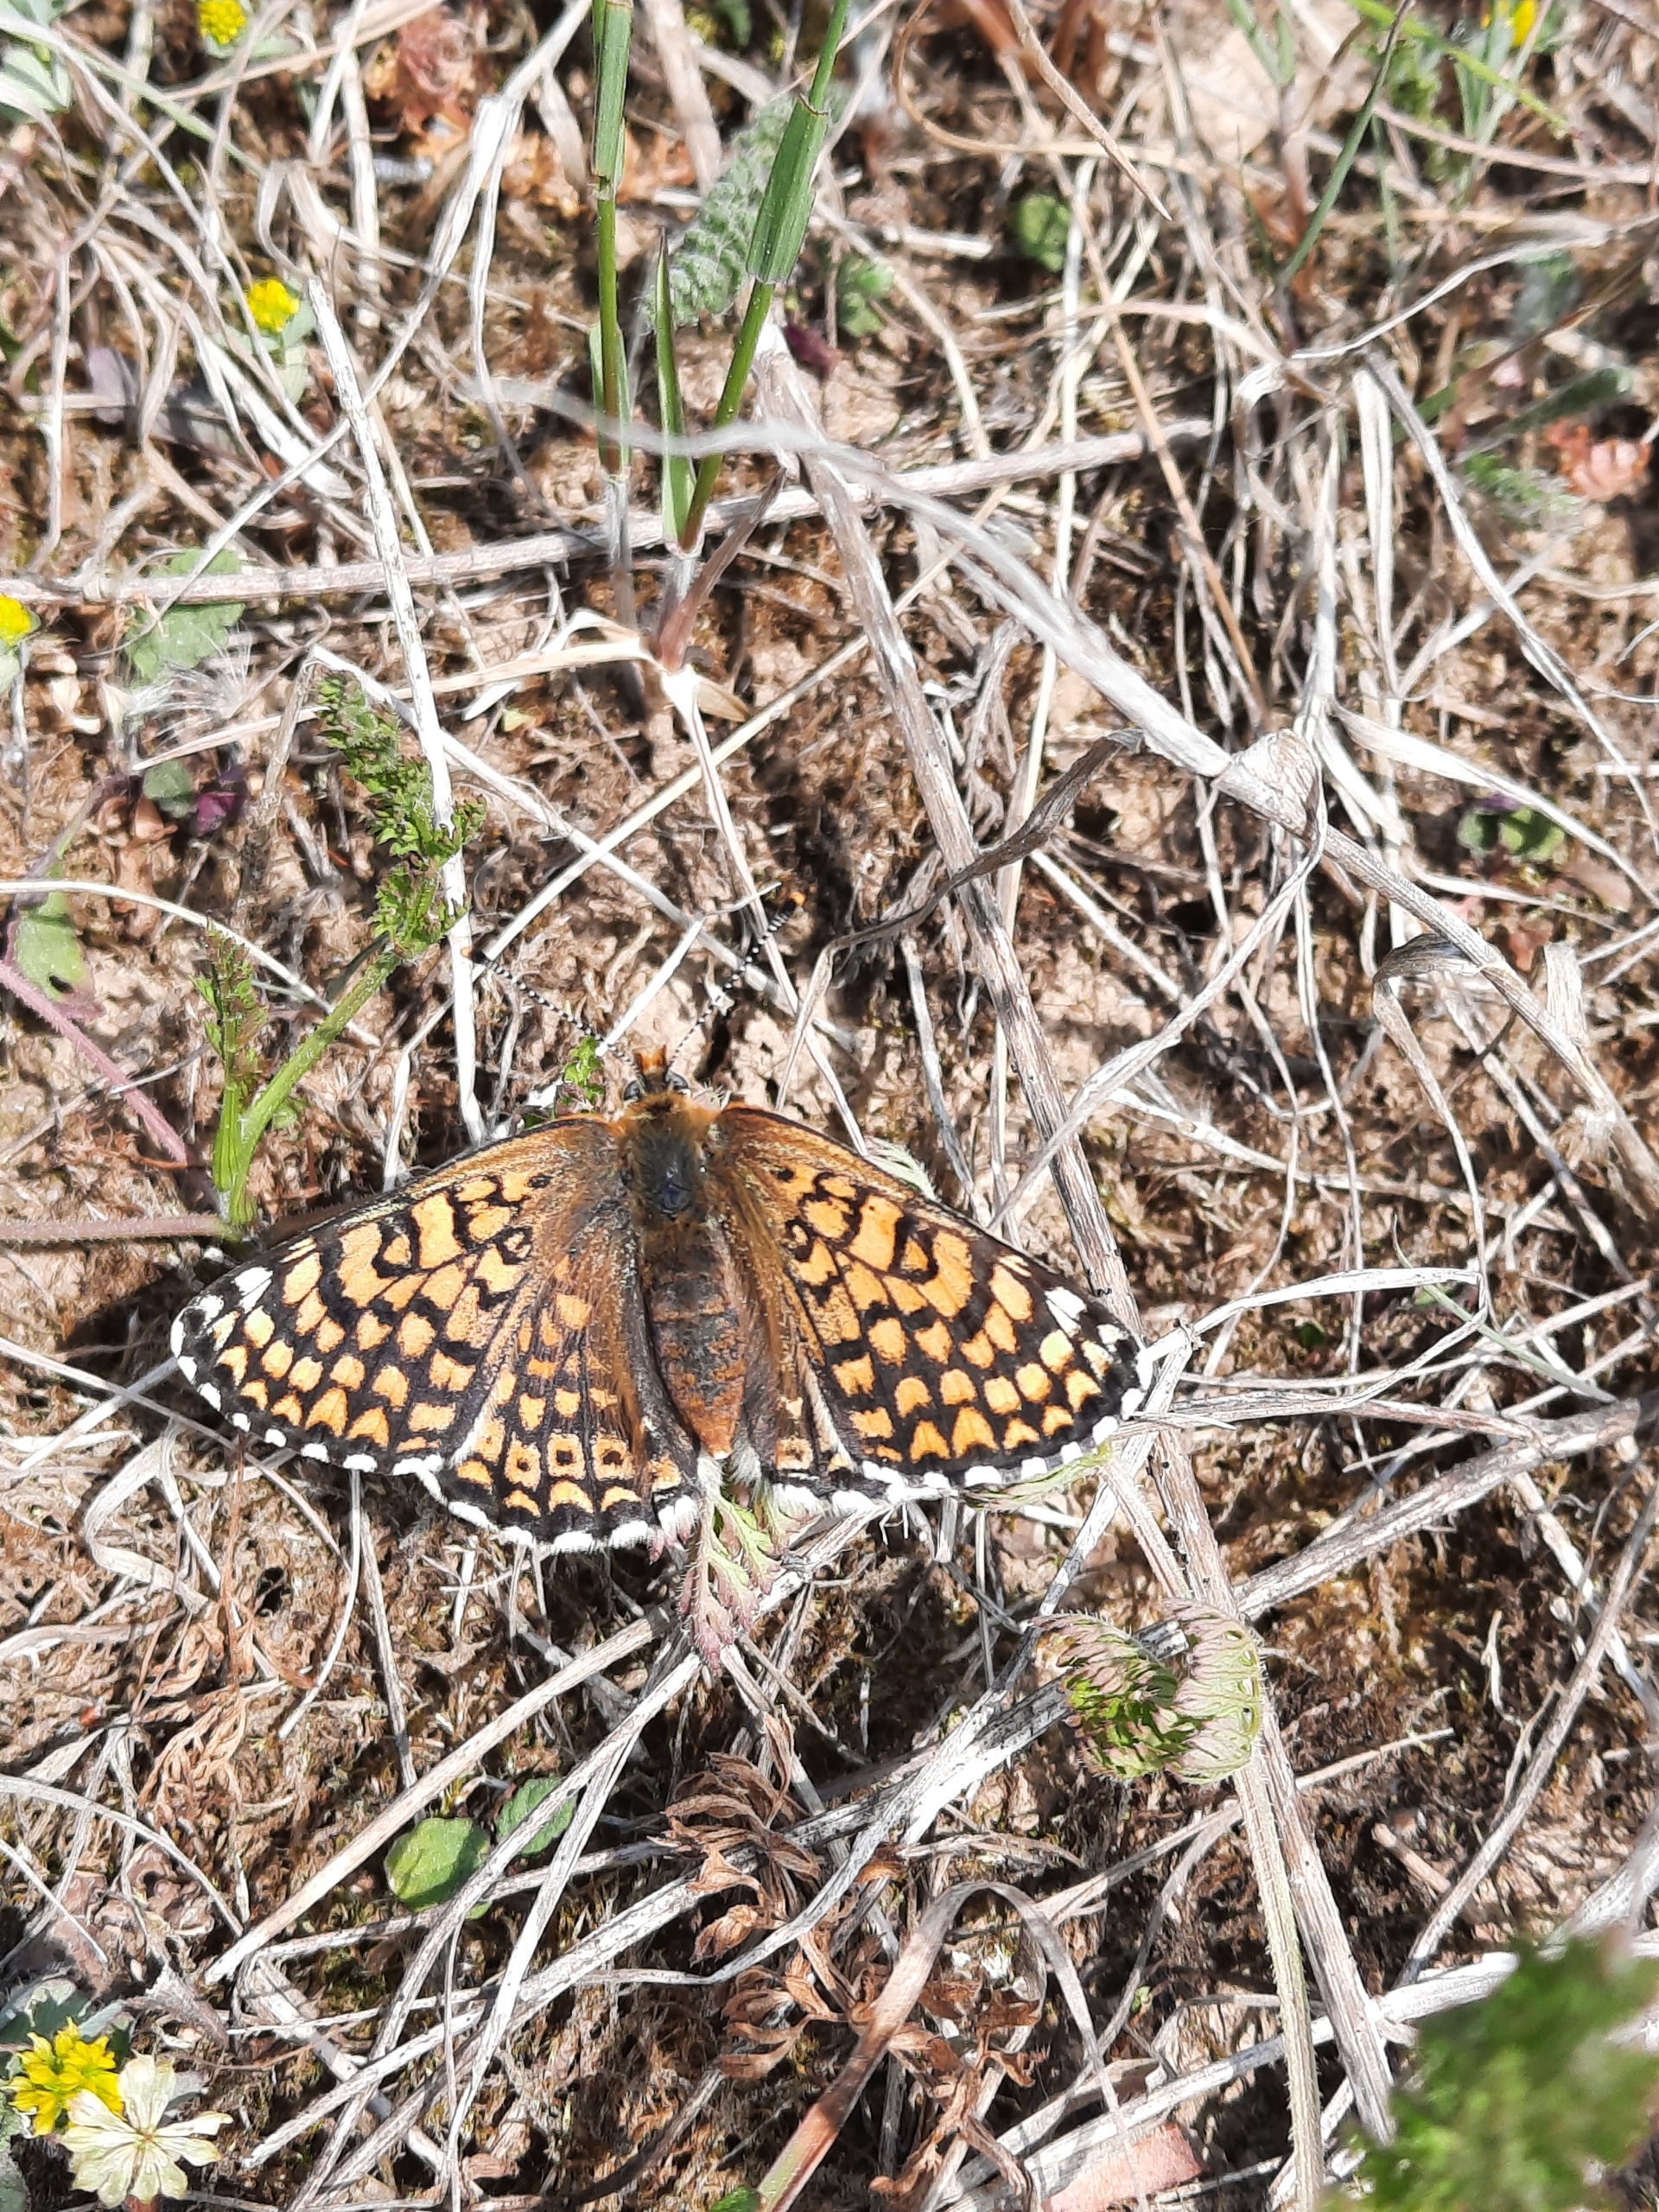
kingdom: Animalia
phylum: Arthropoda
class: Insecta
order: Lepidoptera
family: Nymphalidae
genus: Melitaea
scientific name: Melitaea cinxia
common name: Okkergul pletvinge
